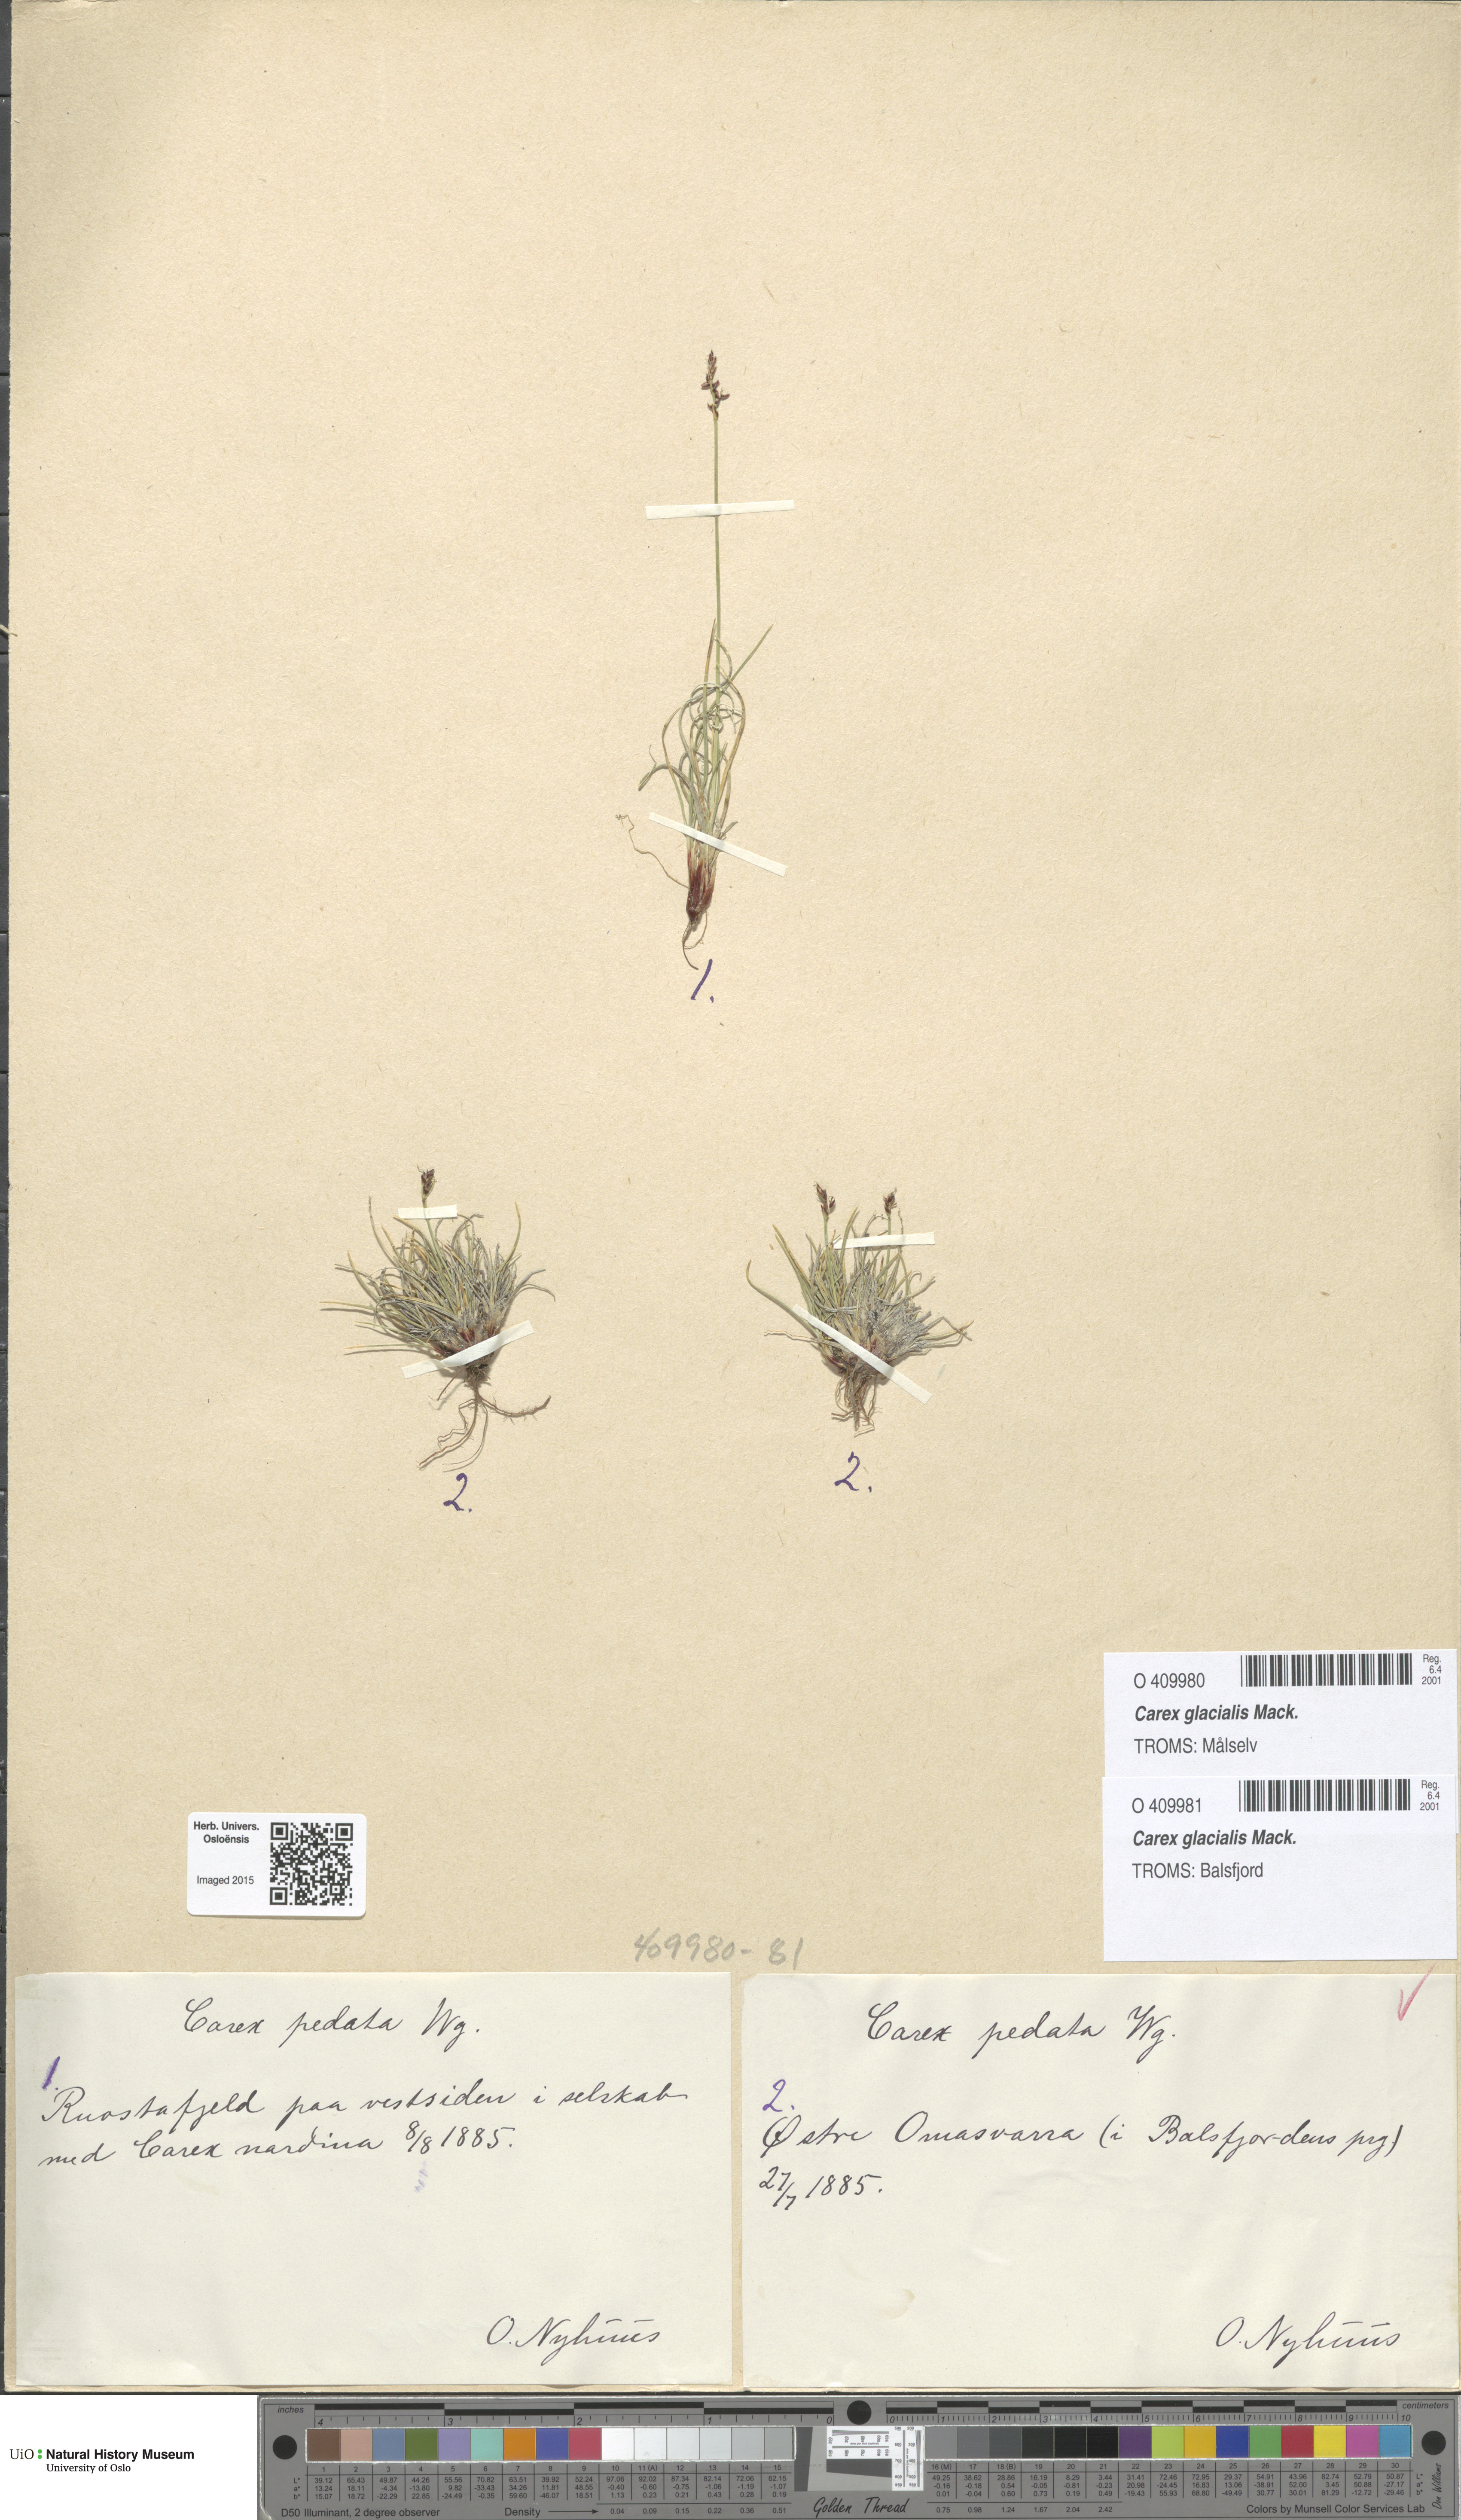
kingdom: Plantae
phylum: Tracheophyta
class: Liliopsida
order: Poales
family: Cyperaceae
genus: Carex
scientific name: Carex glacialis
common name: Newfoundland sedge
